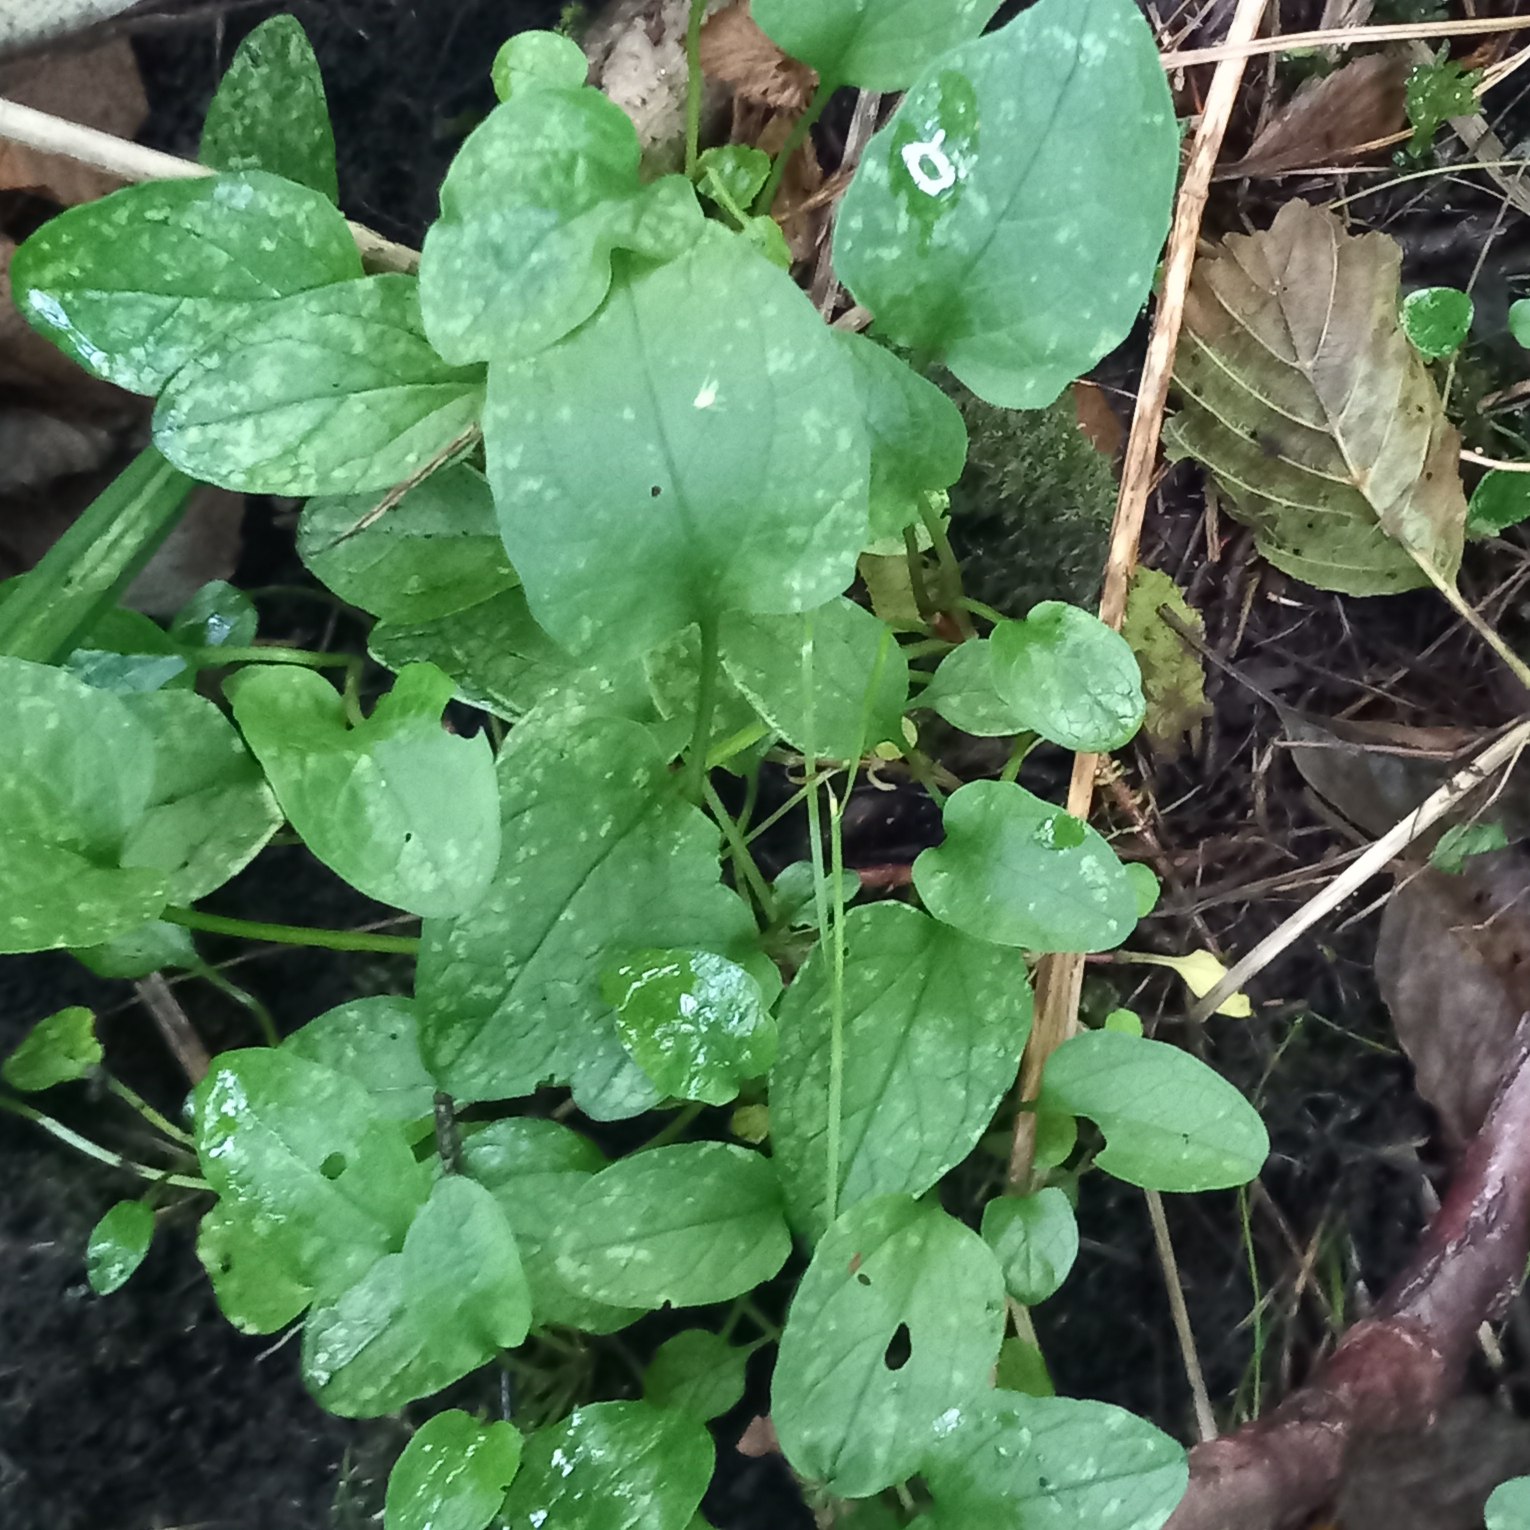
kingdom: Plantae
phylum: Tracheophyta
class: Magnoliopsida
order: Dipsacales
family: Caprifoliaceae
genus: Valeriana
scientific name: Valeriana dioica
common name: Tvebo baldrian
